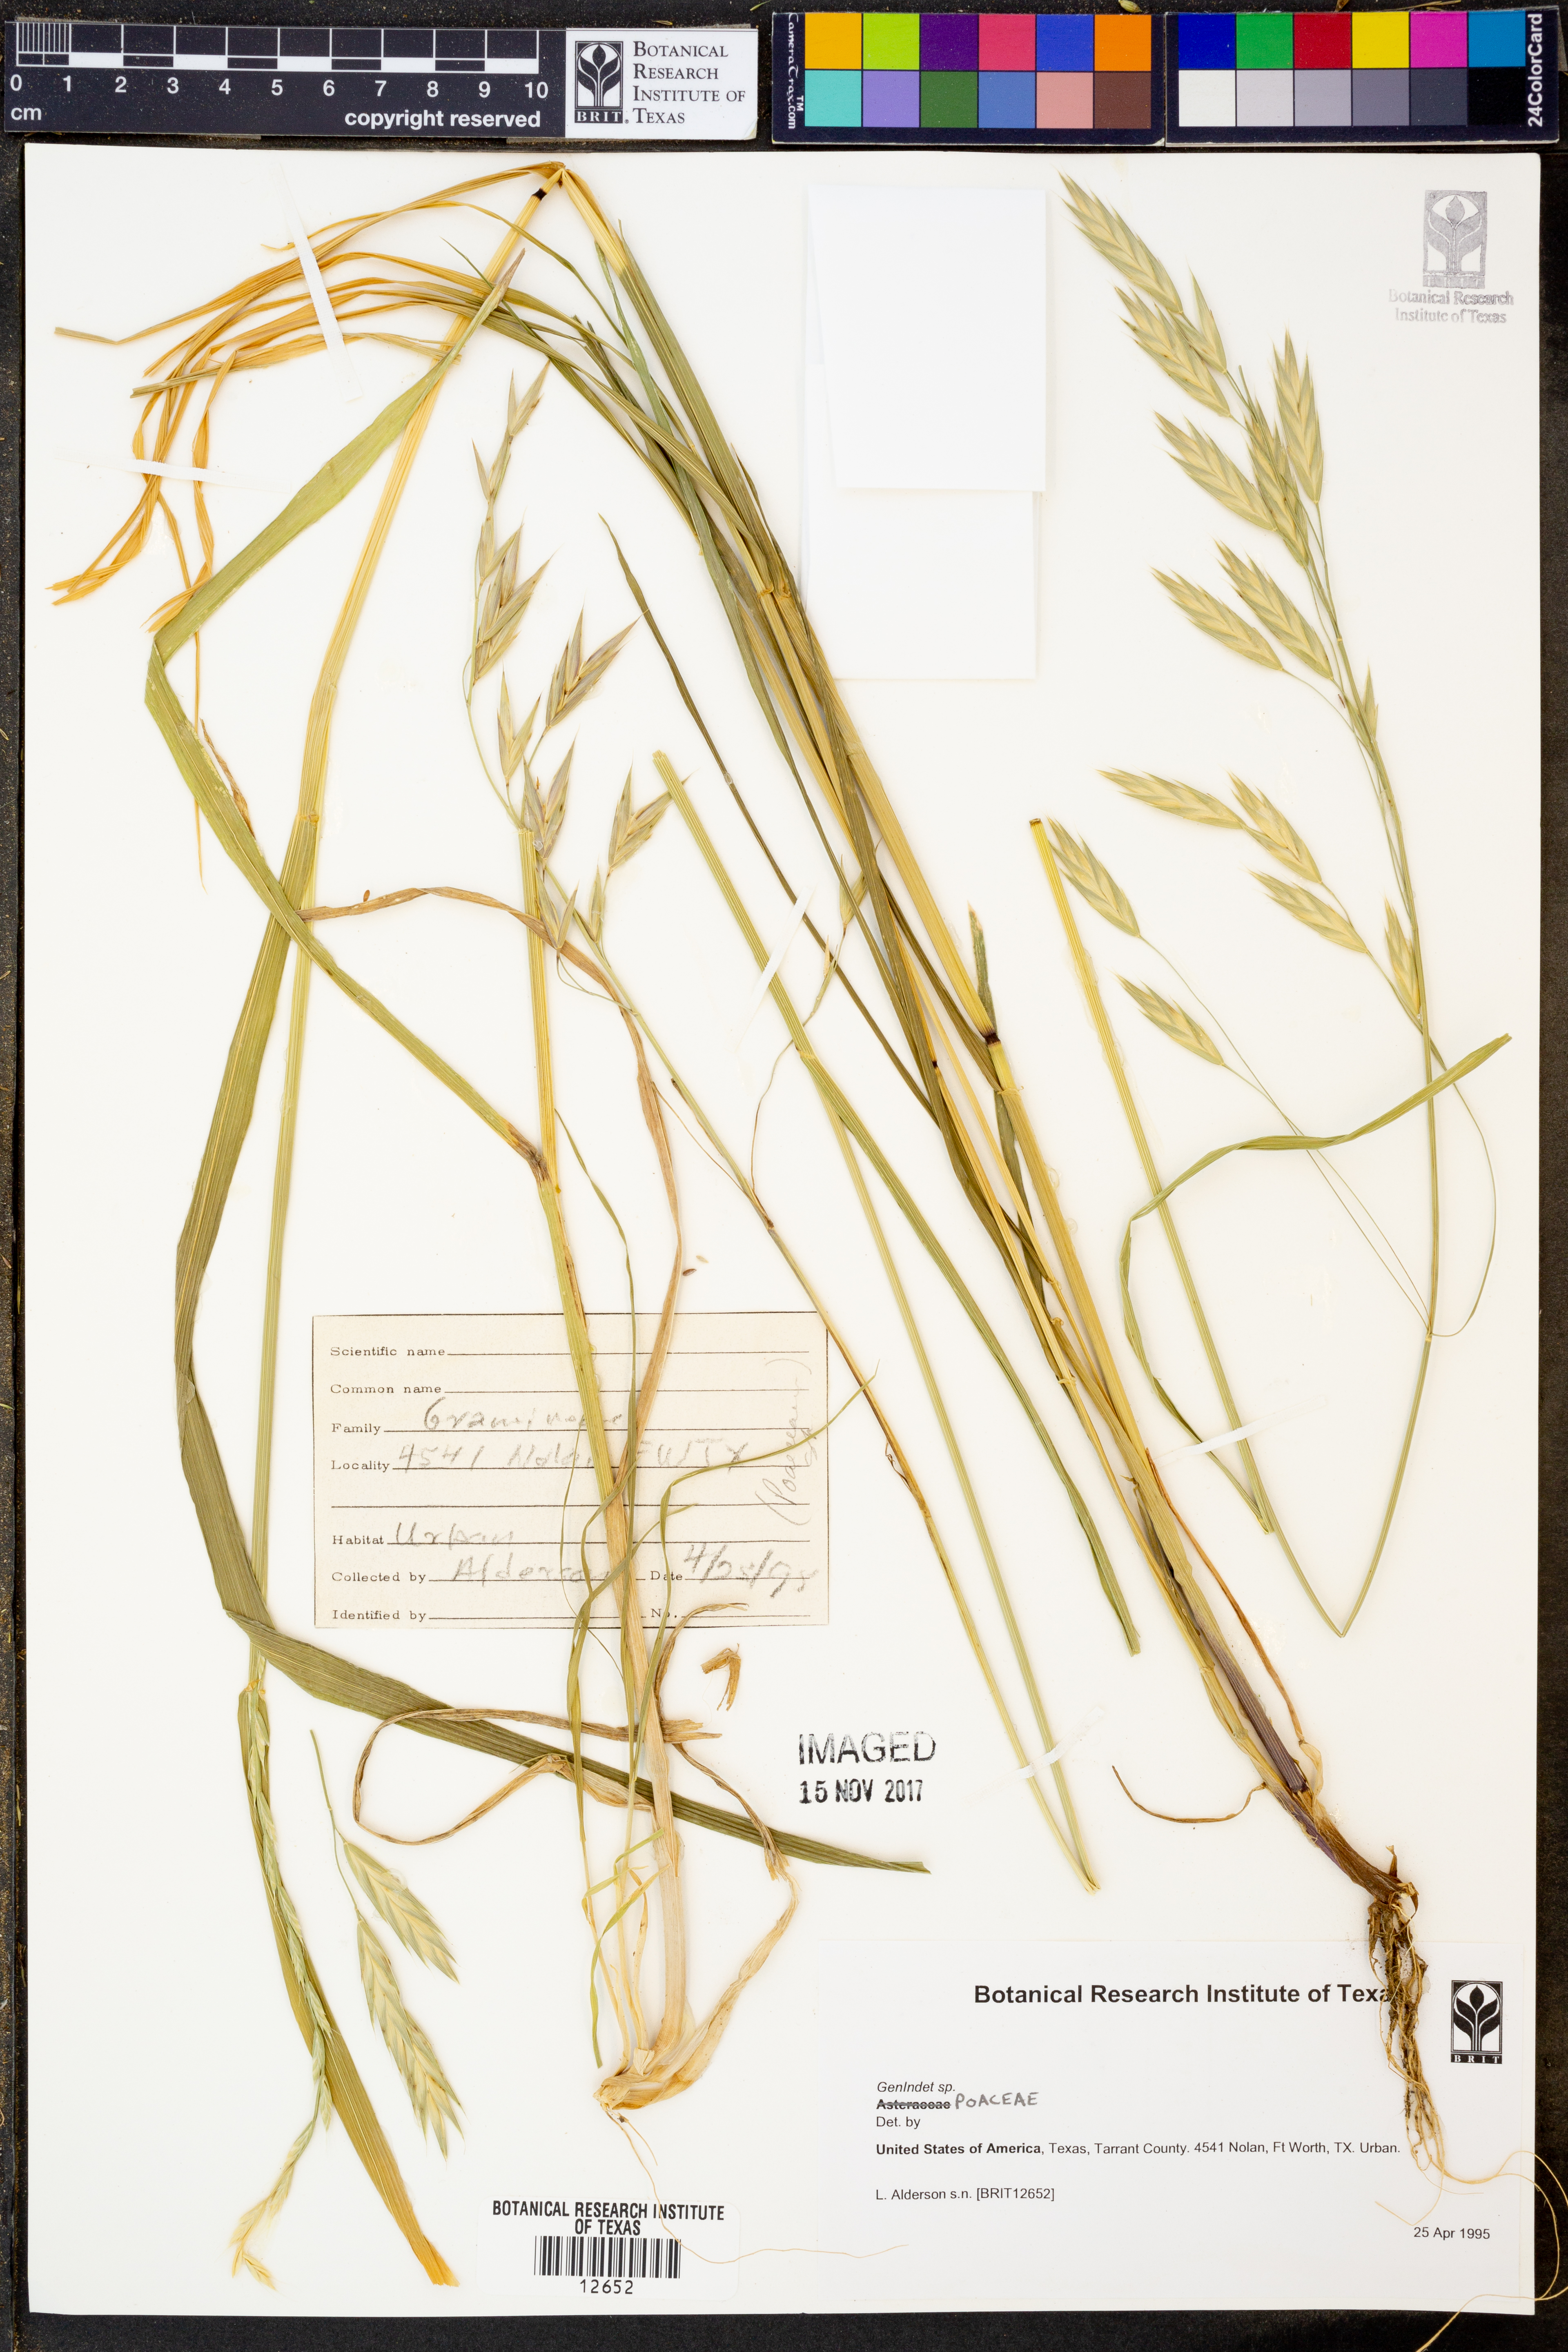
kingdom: Plantae
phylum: Tracheophyta
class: Magnoliopsida
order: Asterales
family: Asteraceae
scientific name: Asteraceae
